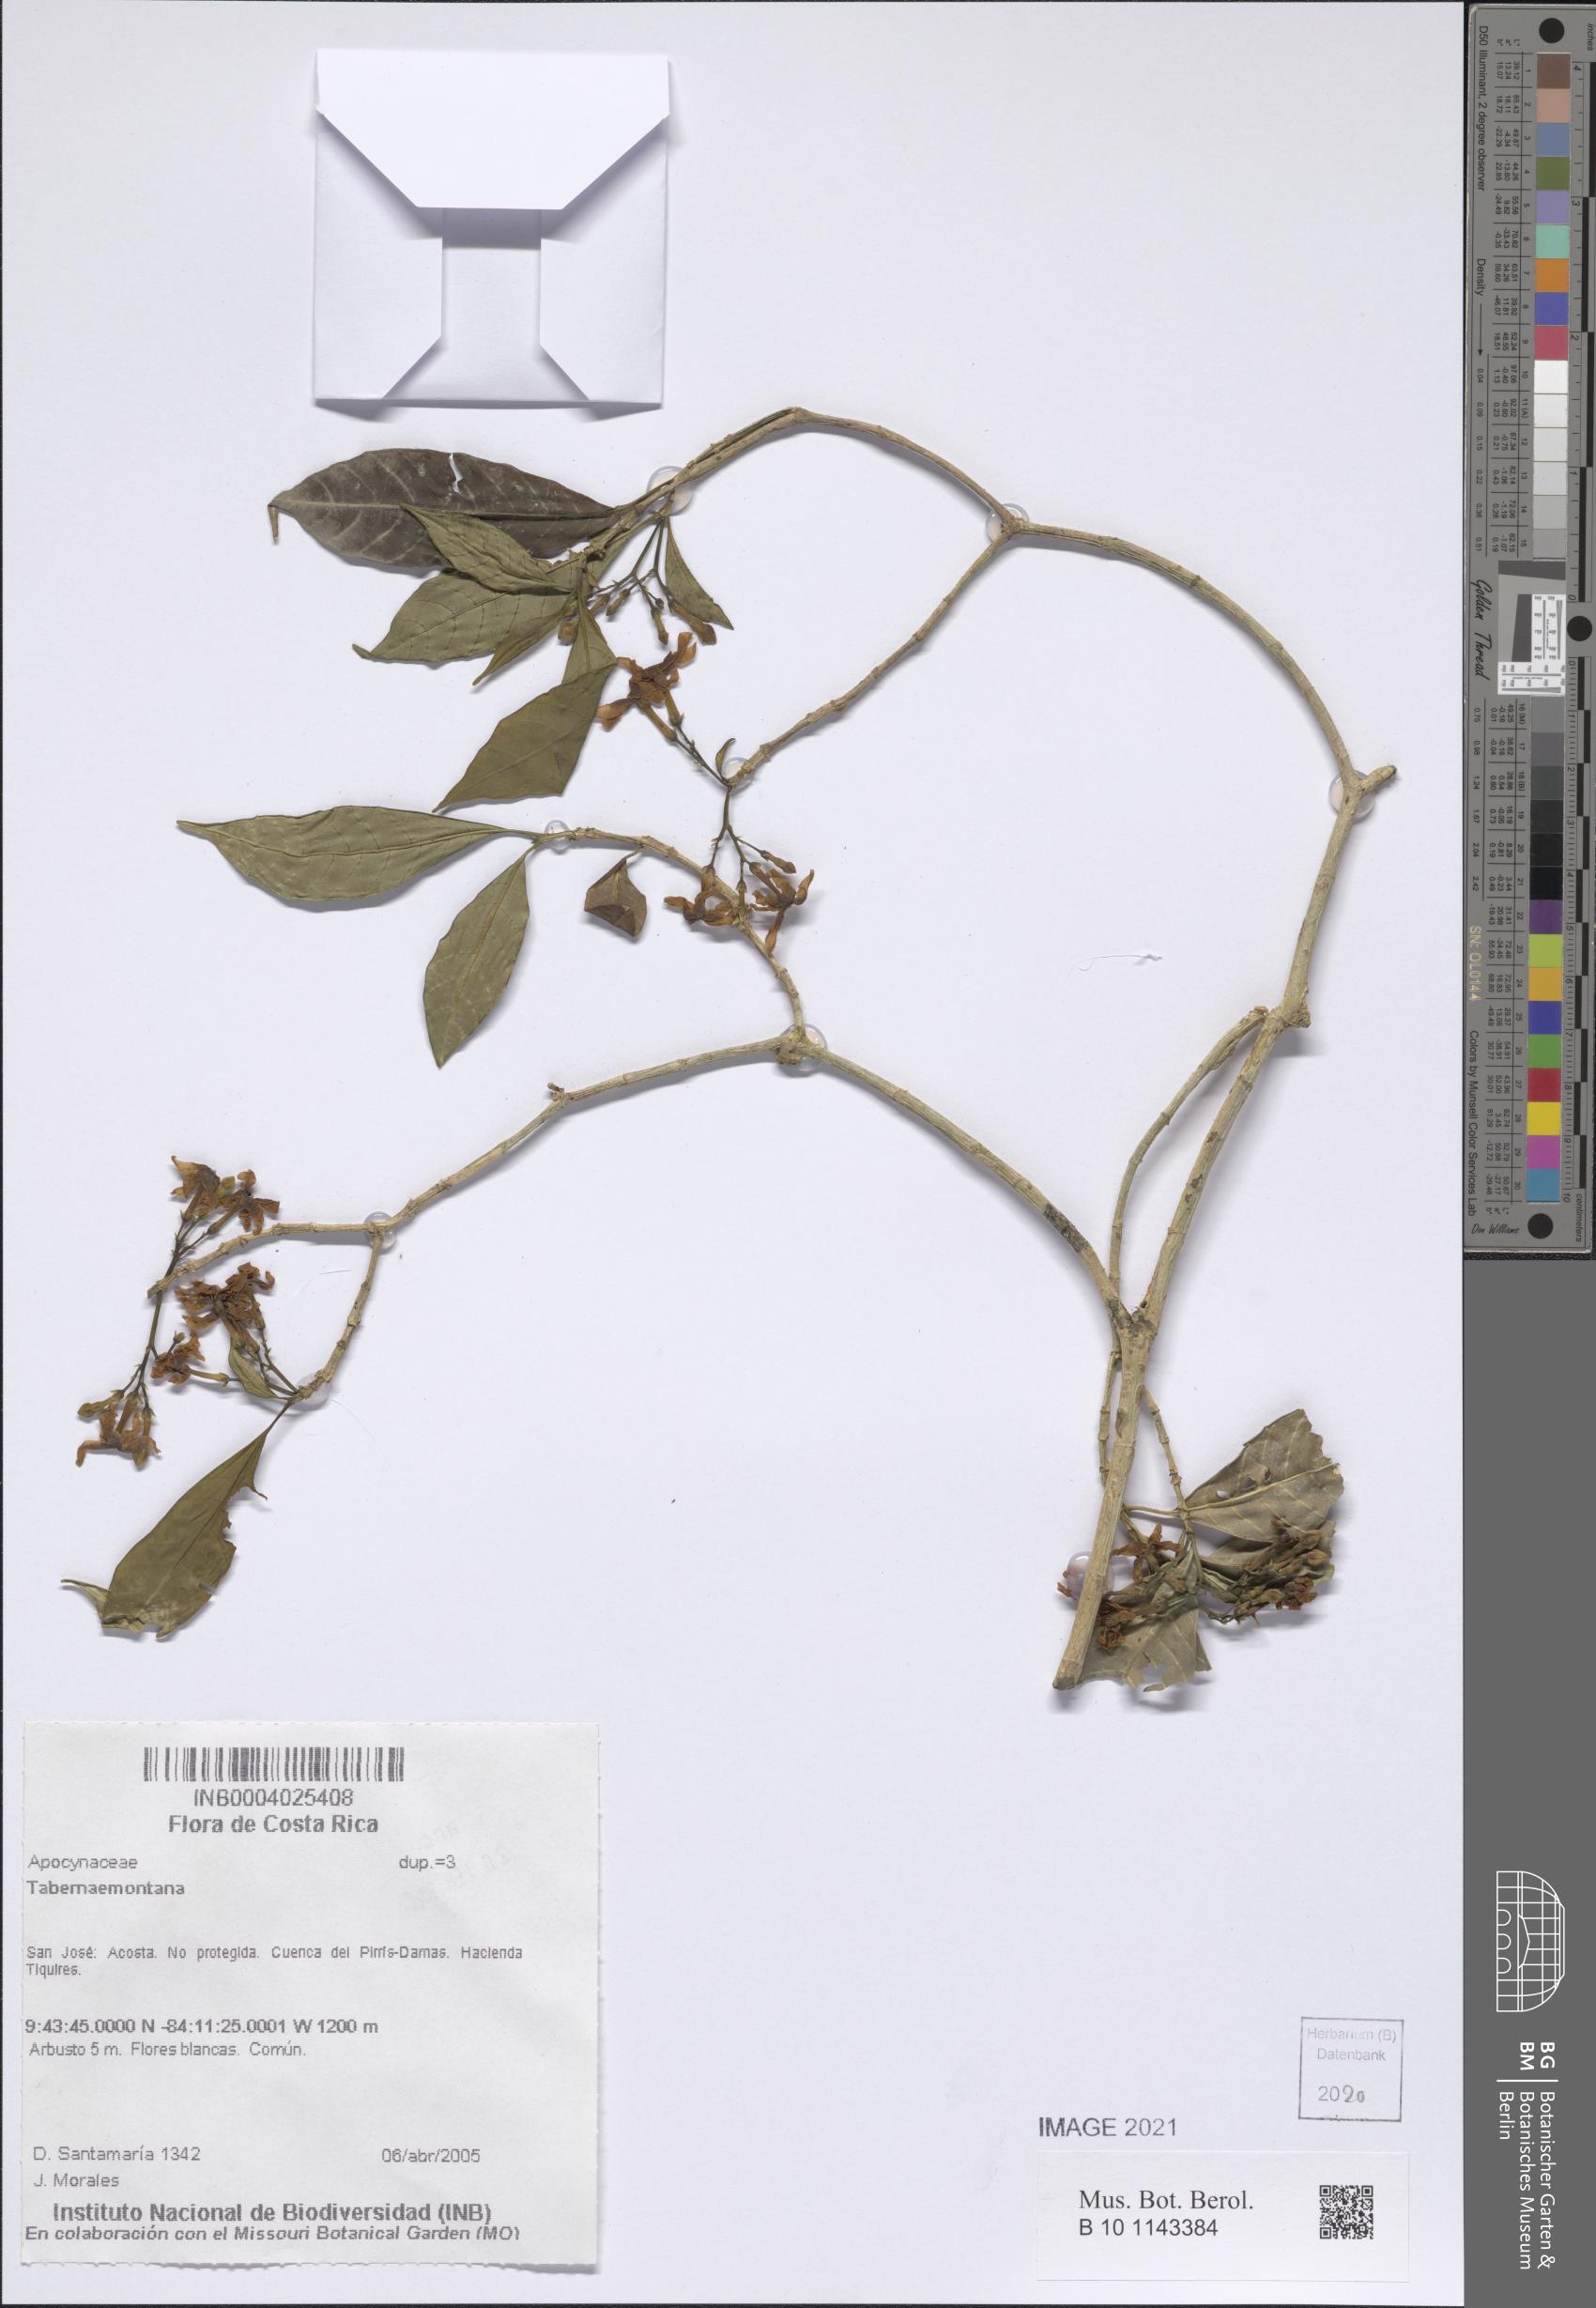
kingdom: Plantae
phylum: Tracheophyta
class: Magnoliopsida
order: Gentianales
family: Apocynaceae
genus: Tabernaemontana
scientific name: Tabernaemontana
